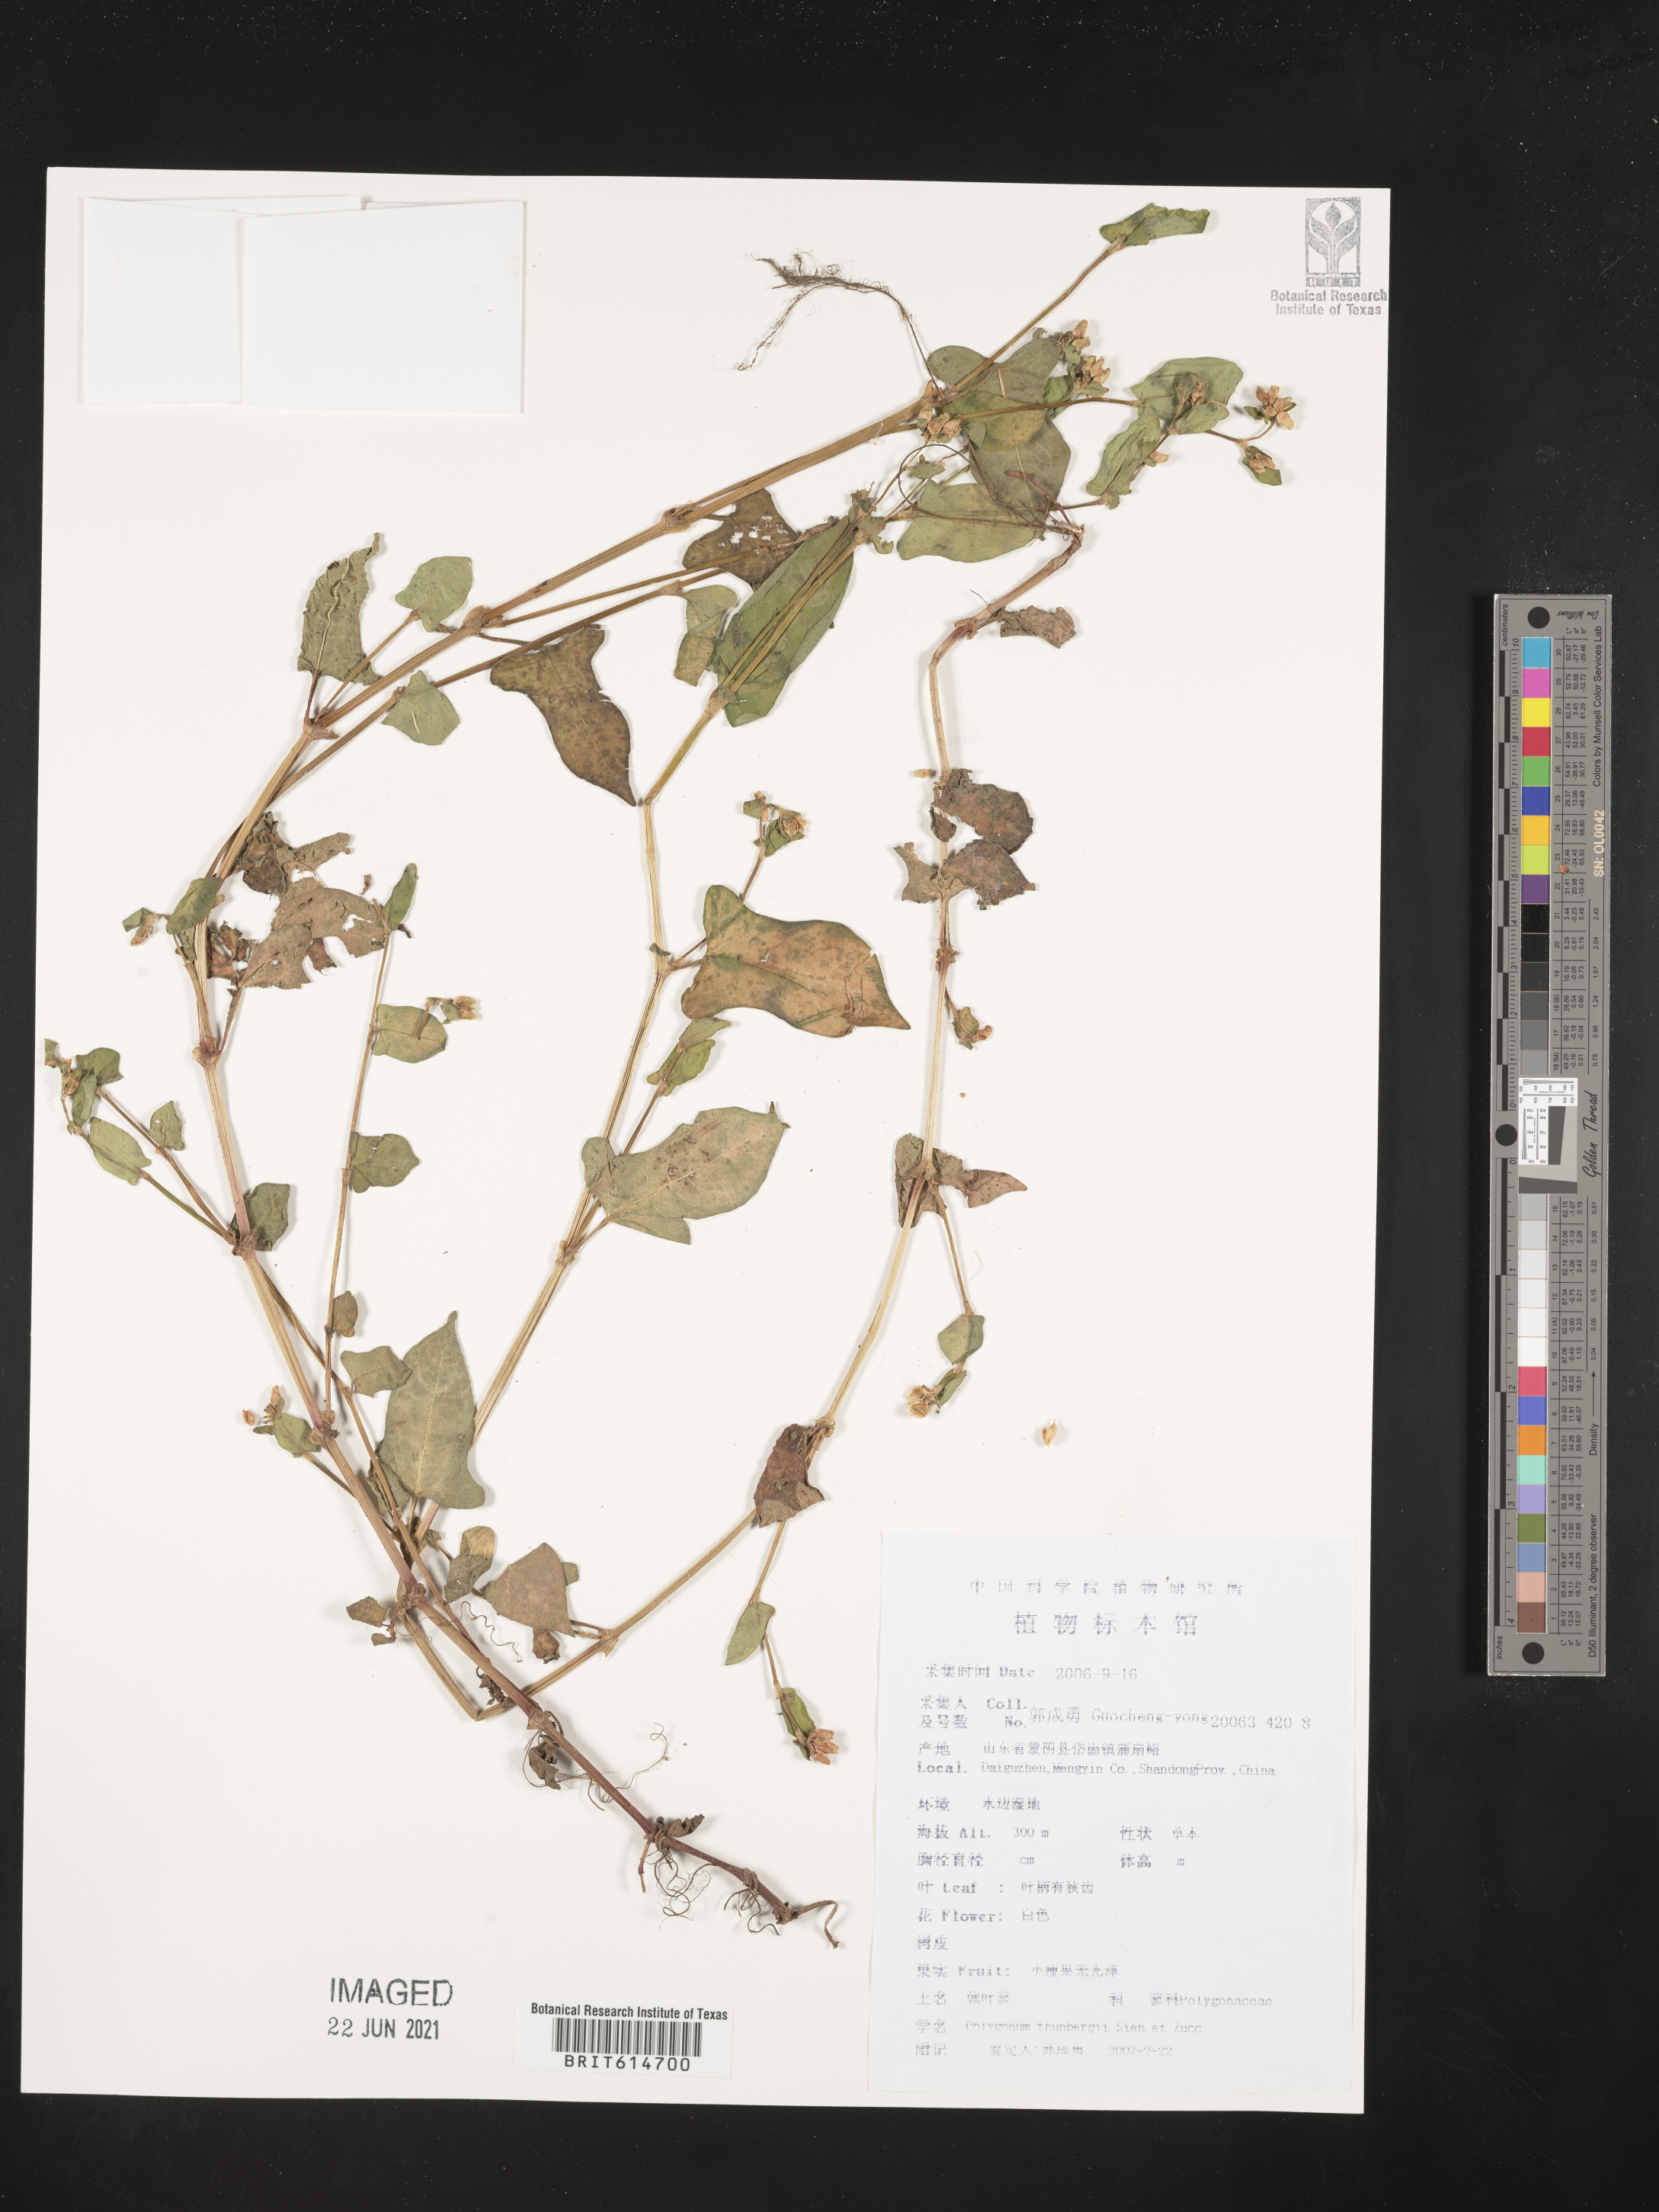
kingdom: Plantae
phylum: Tracheophyta
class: Magnoliopsida
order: Caryophyllales
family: Polygonaceae
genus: Persicaria
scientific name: Persicaria thunbergii
